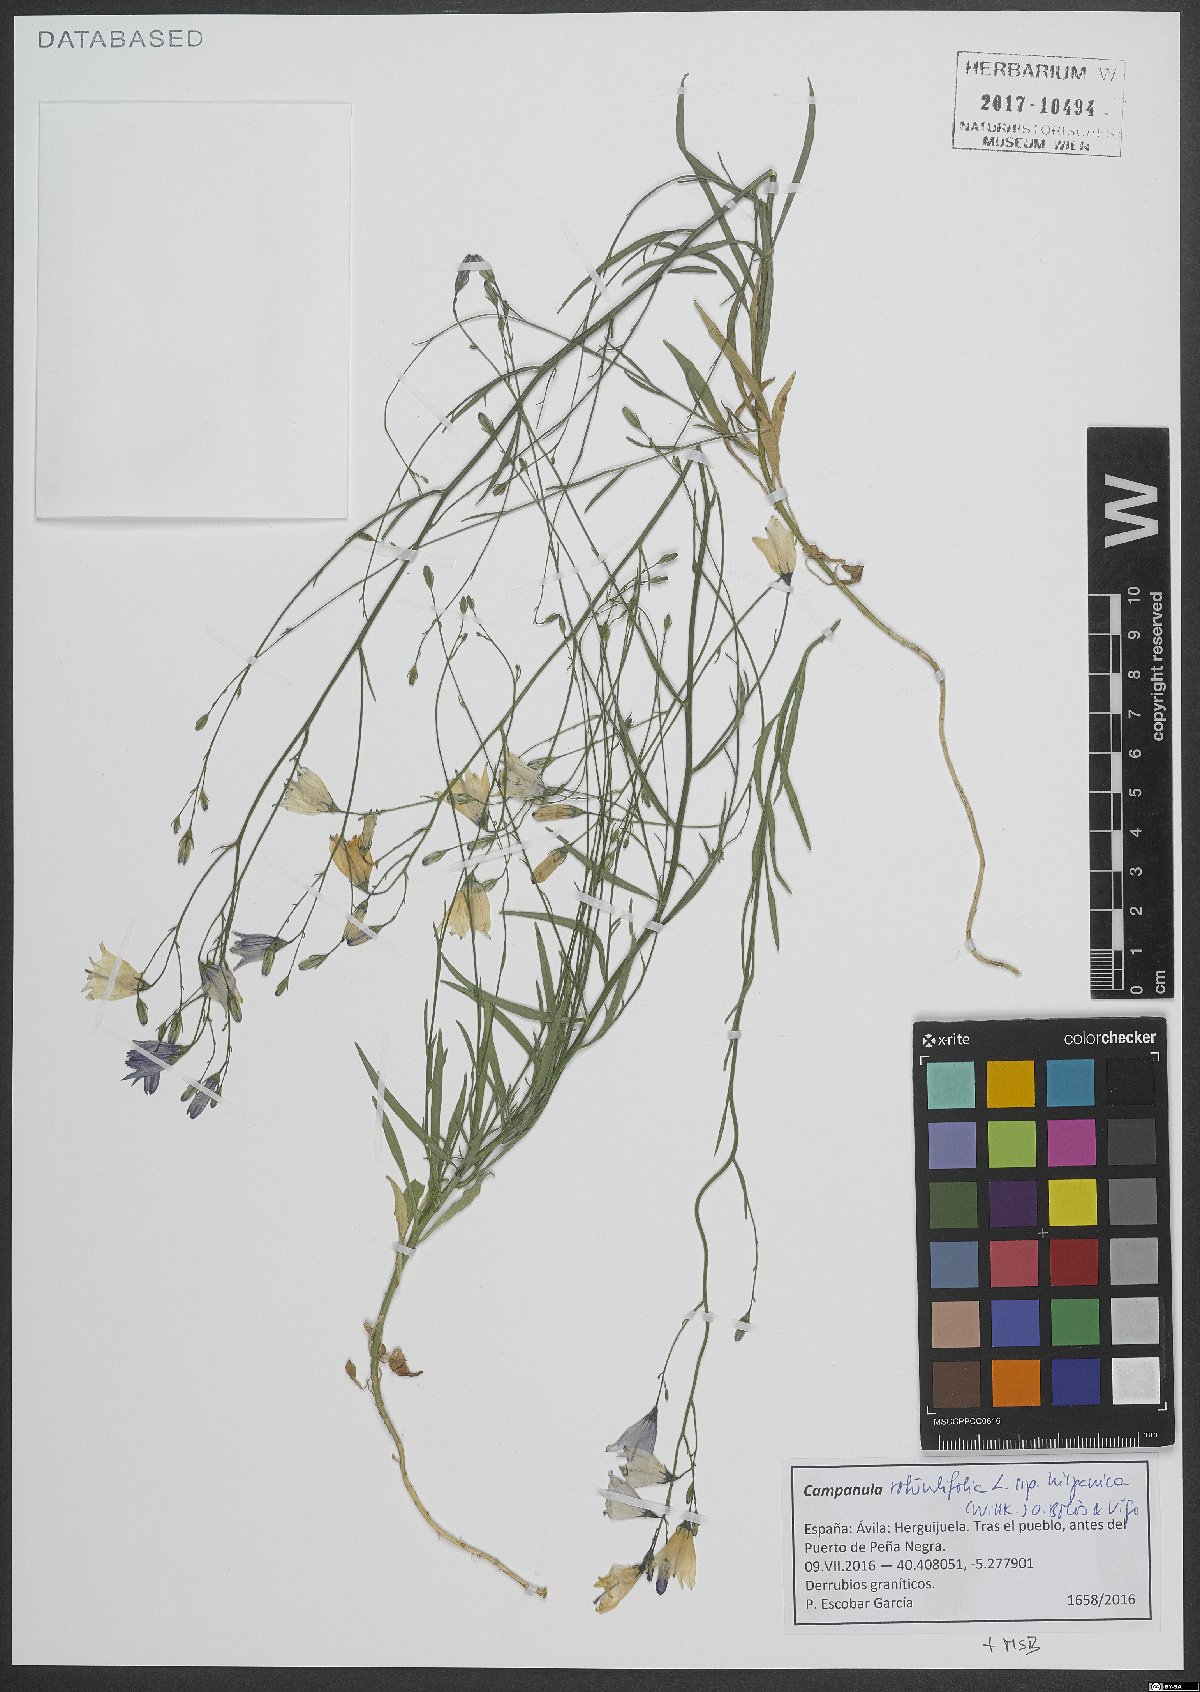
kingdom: Plantae
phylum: Tracheophyta
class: Magnoliopsida
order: Asterales
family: Campanulaceae
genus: Campanula
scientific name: Campanula hispanica
